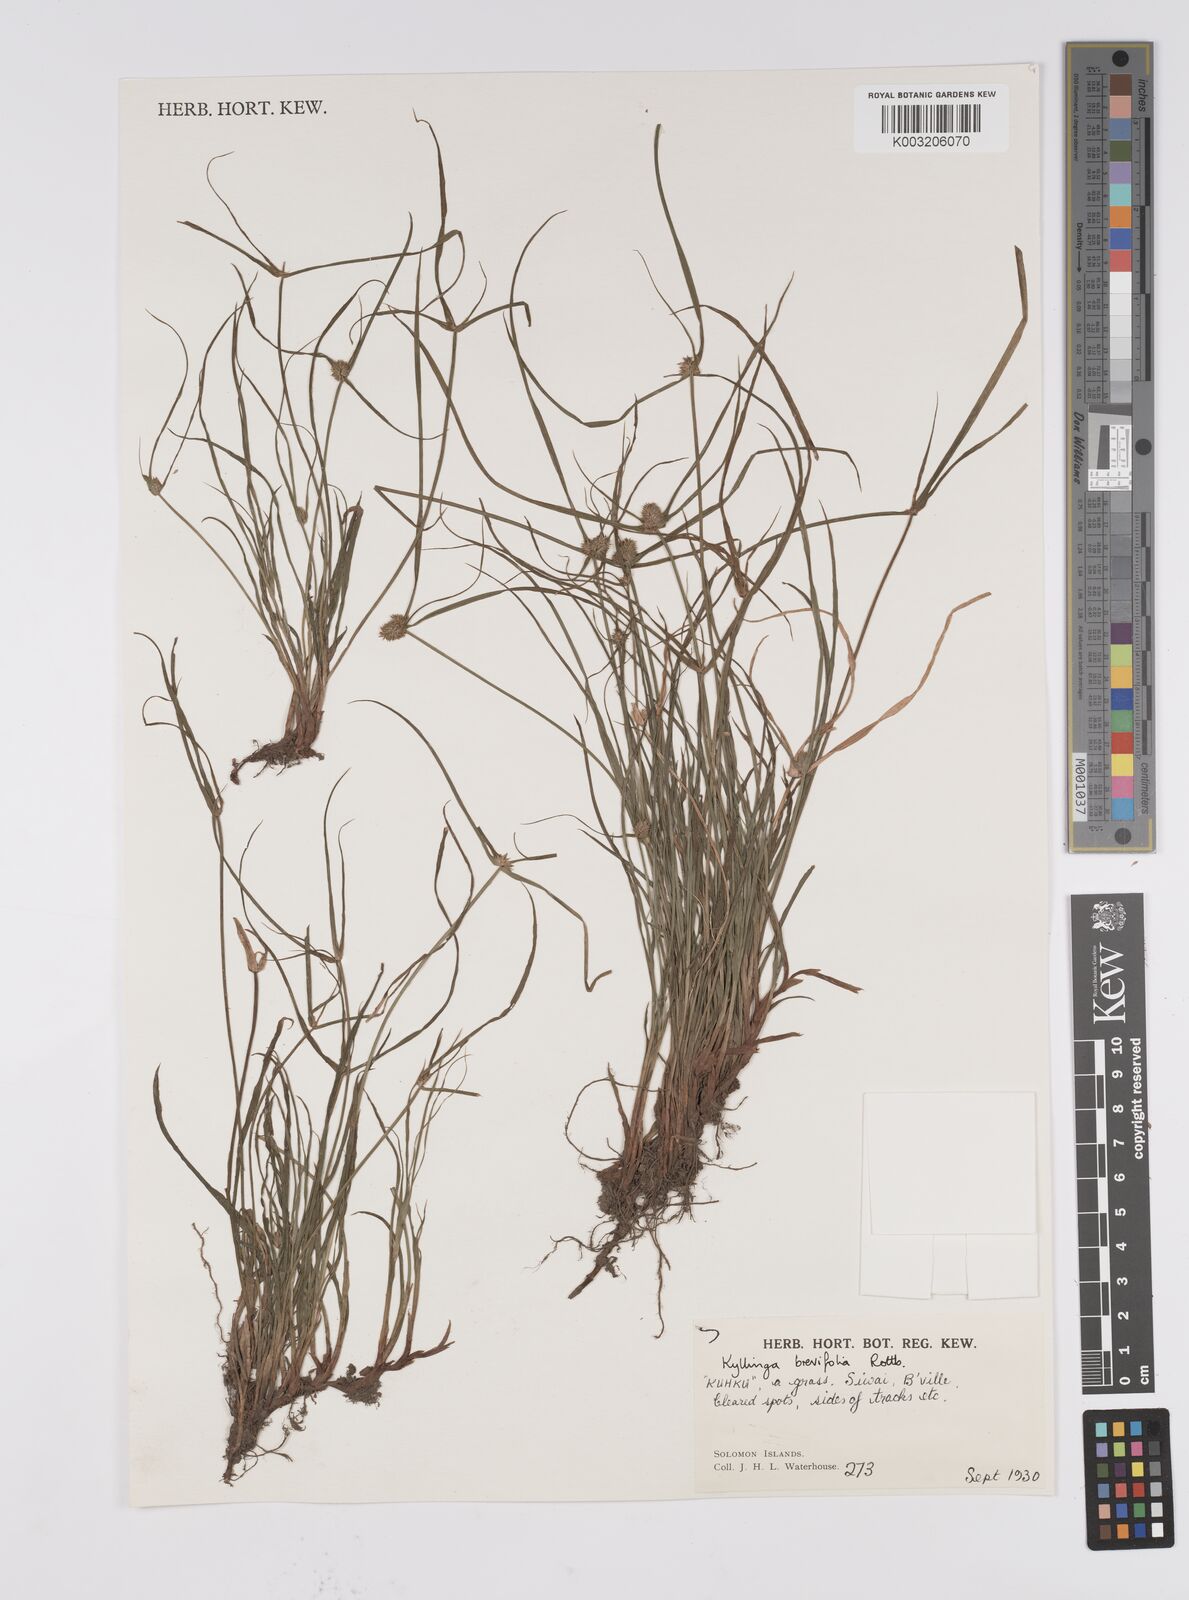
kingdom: Plantae
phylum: Tracheophyta
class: Liliopsida
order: Poales
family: Cyperaceae
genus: Cyperus
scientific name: Cyperus brevifolius
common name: Globe kyllinga
